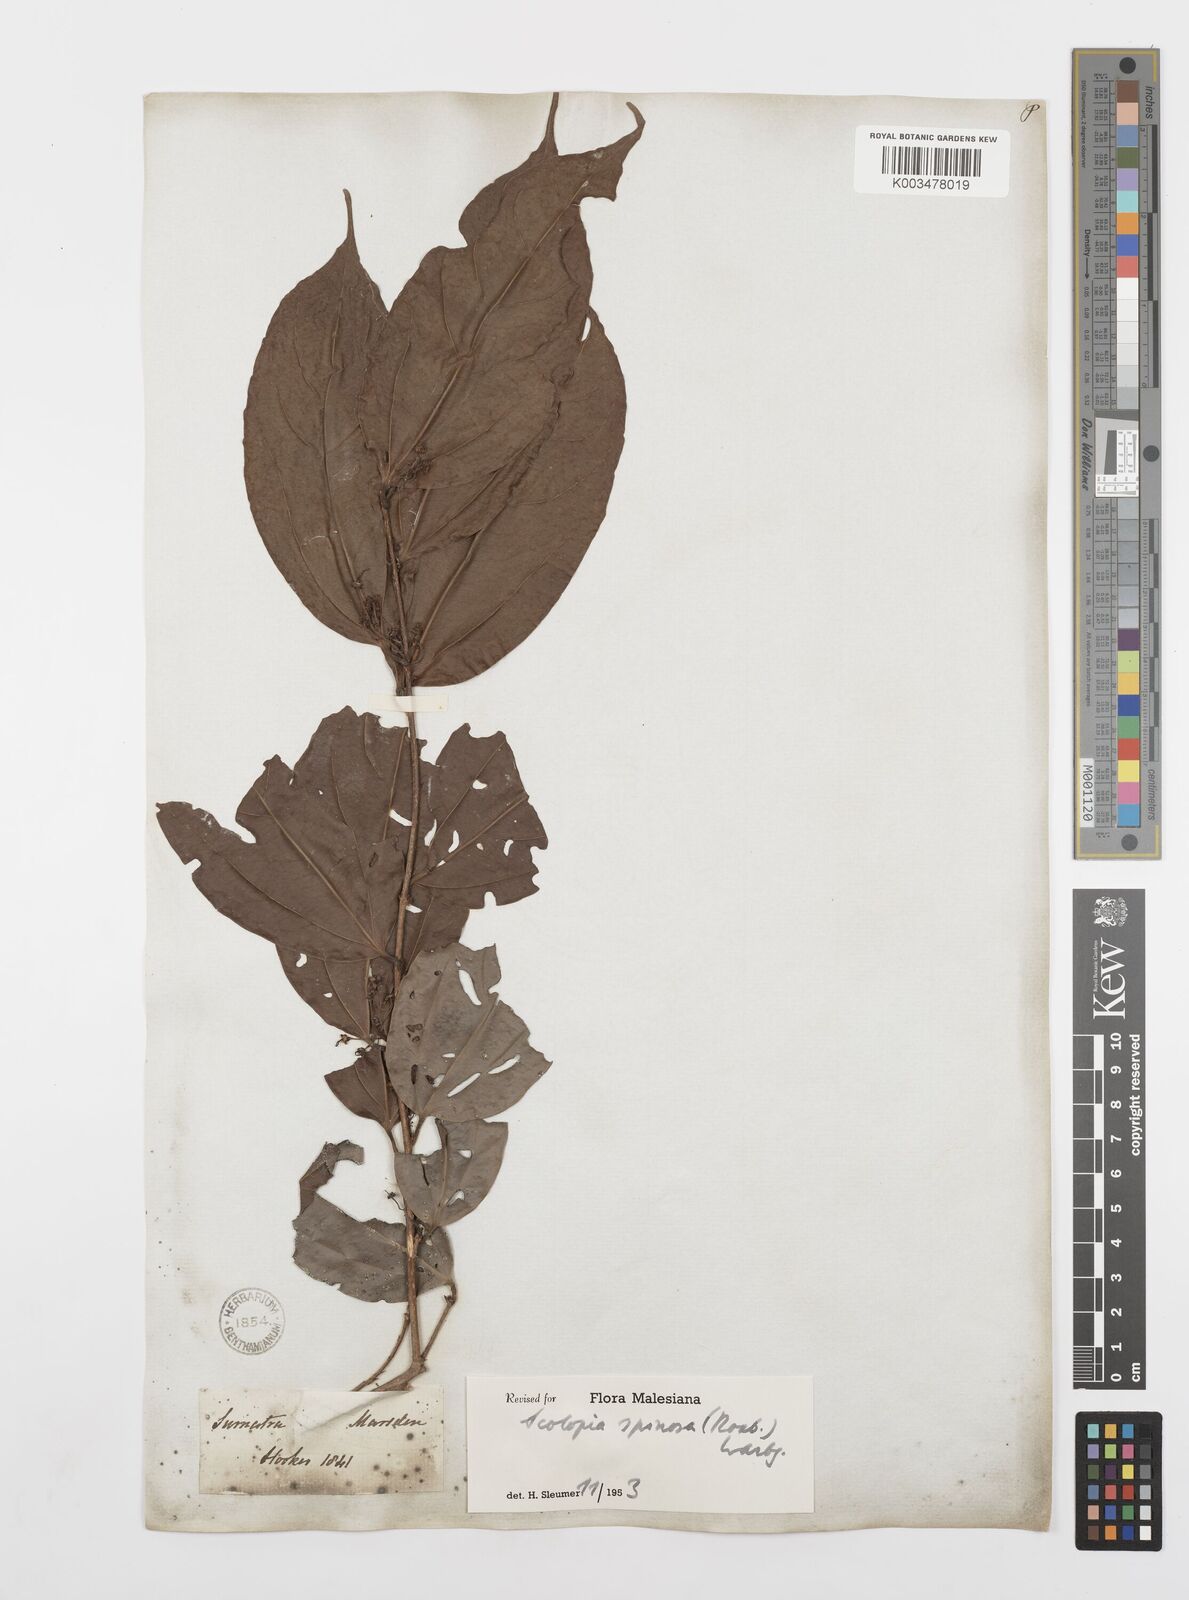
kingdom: Plantae
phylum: Tracheophyta
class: Magnoliopsida
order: Malpighiales
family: Salicaceae
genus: Scolopia
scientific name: Scolopia spinosa
